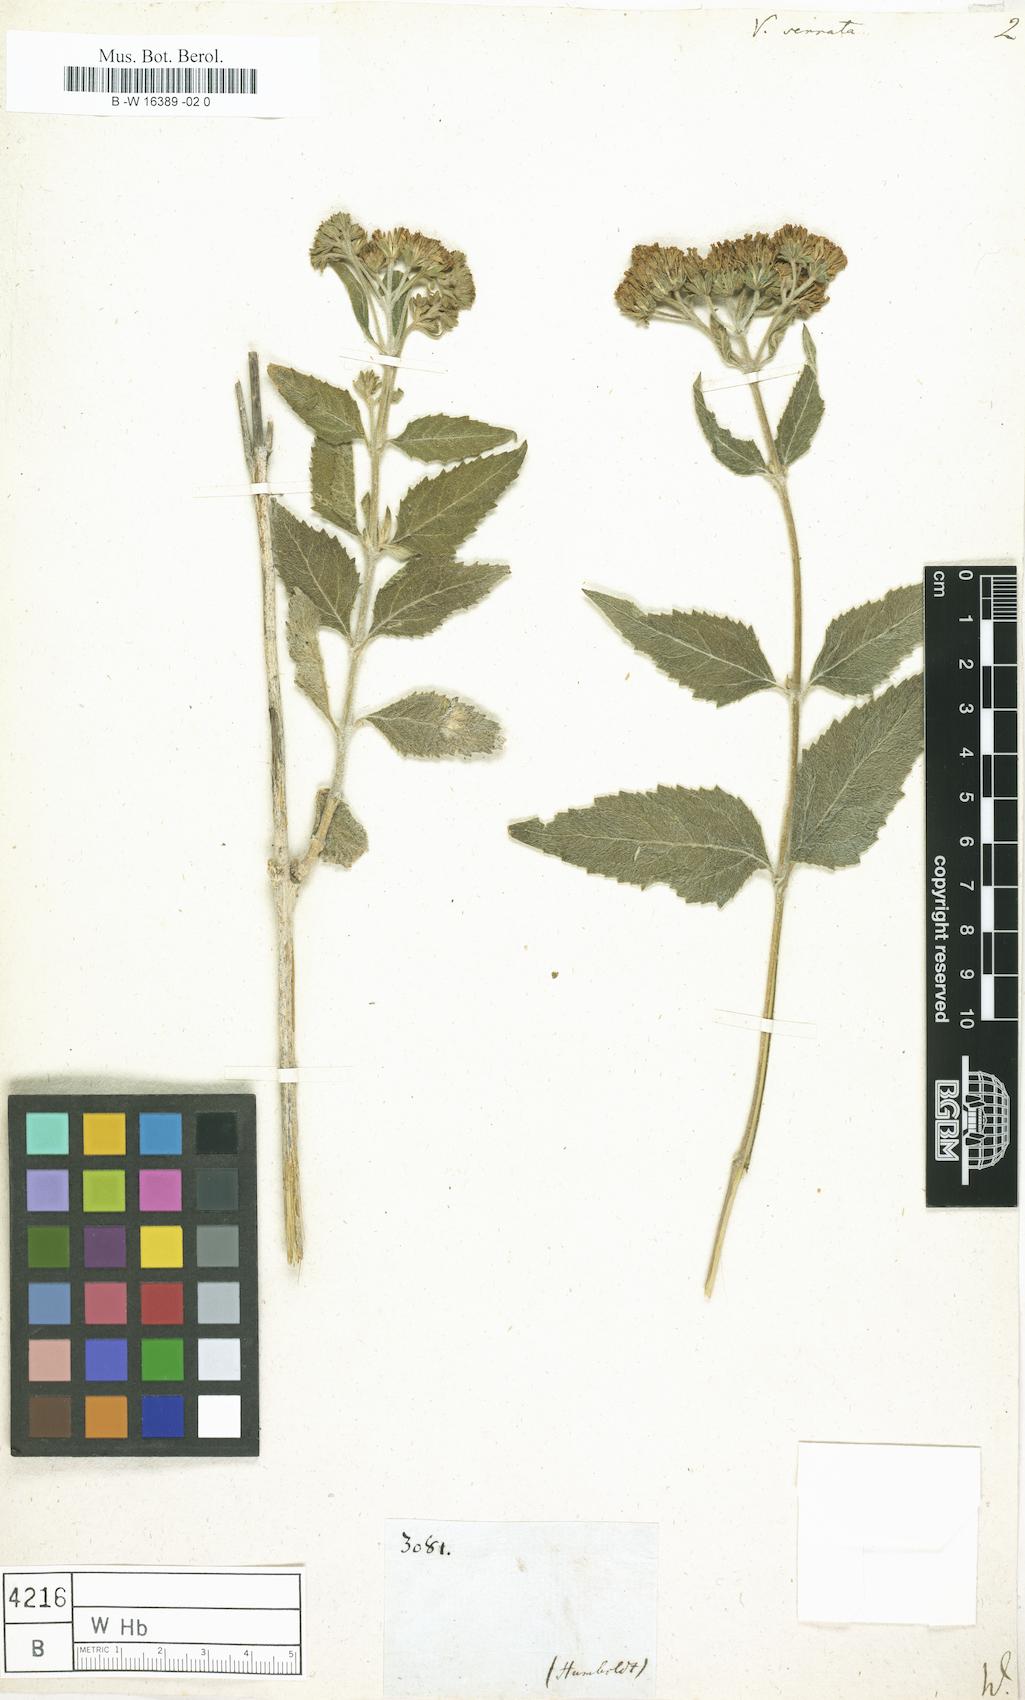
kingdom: Plantae
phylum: Tracheophyta
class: Magnoliopsida
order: Asterales
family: Asteraceae
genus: Verbesina
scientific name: Verbesina serrata
